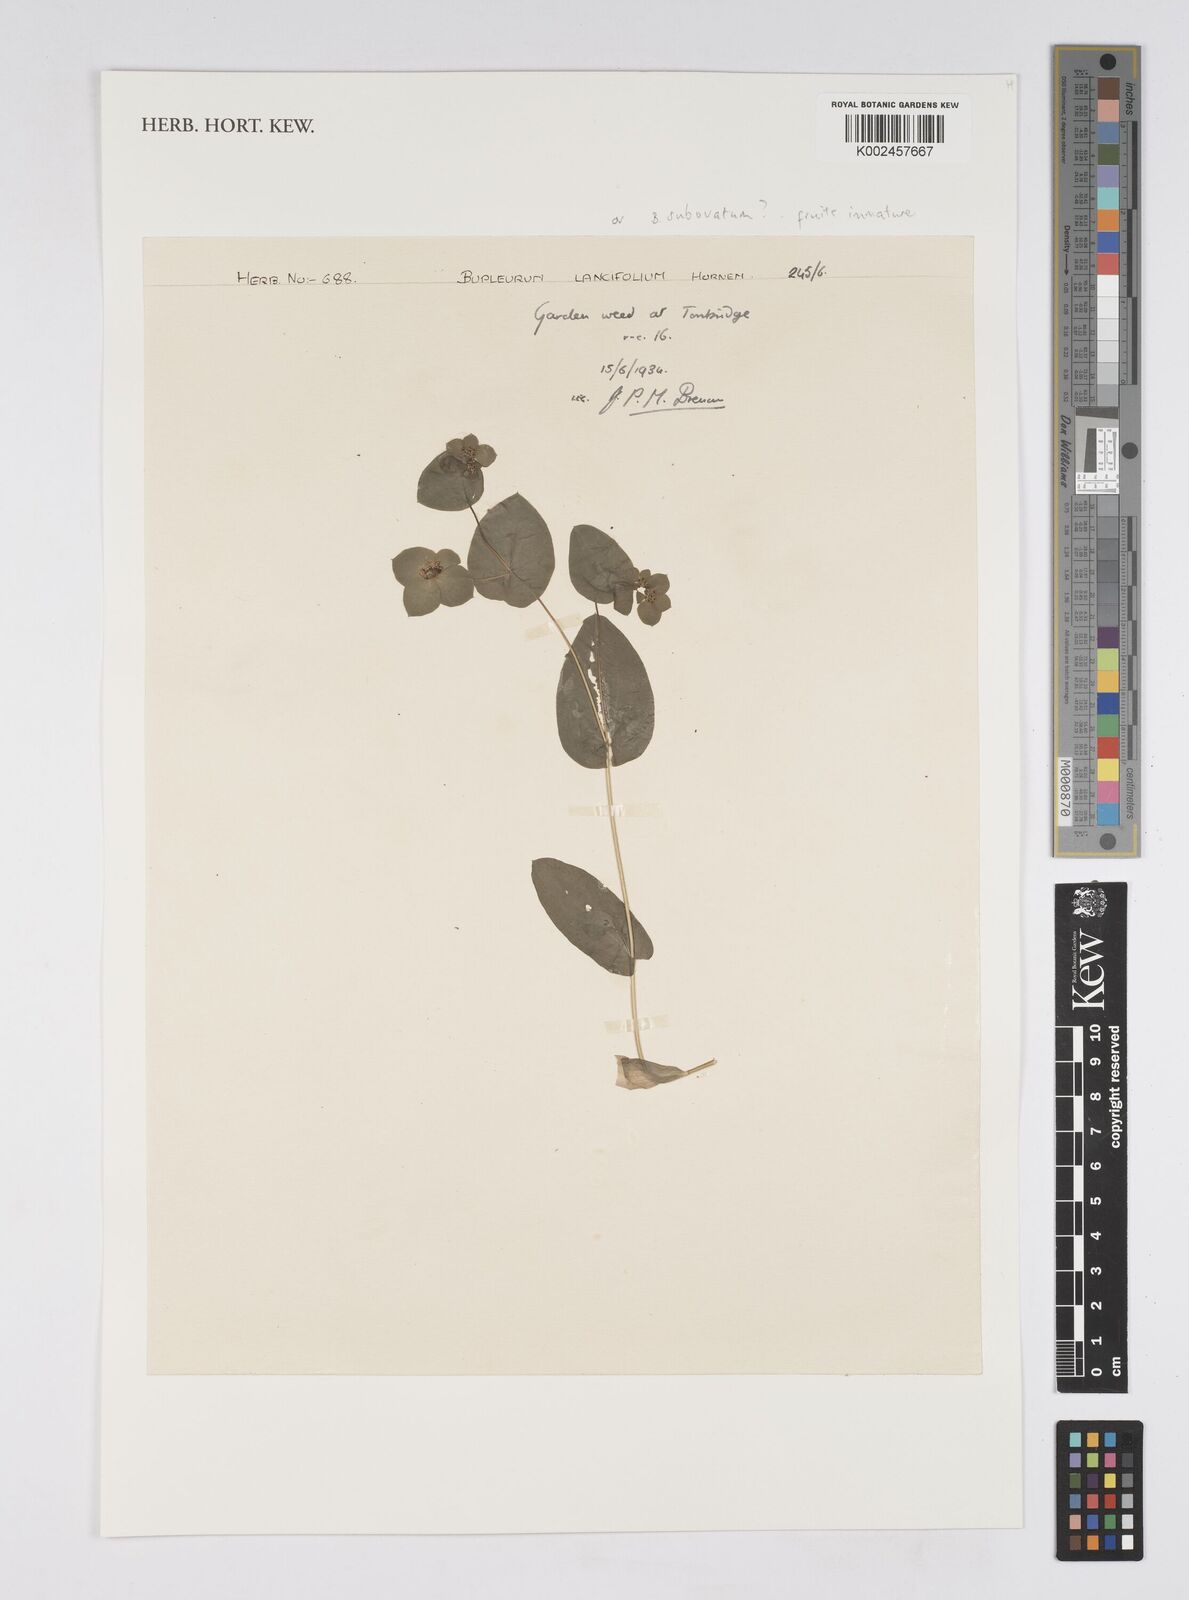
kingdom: Plantae
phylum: Tracheophyta
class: Magnoliopsida
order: Apiales
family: Apiaceae
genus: Bupleurum
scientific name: Bupleurum lancifolium
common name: False thorow-wax
